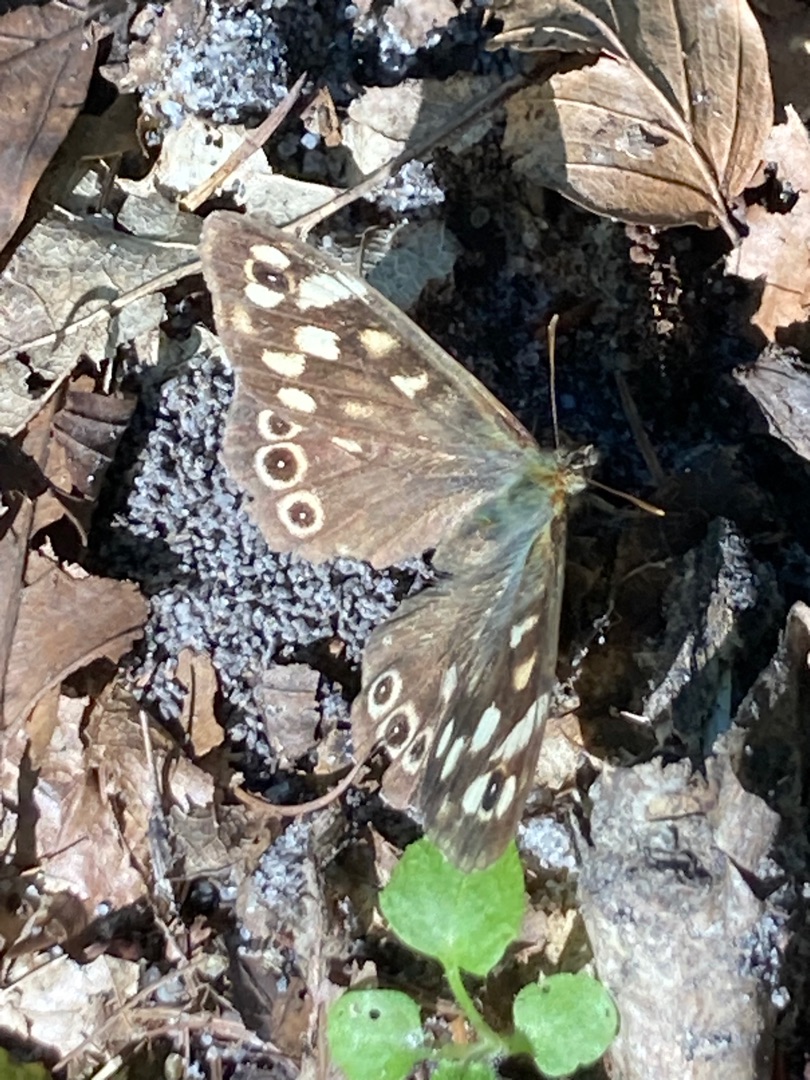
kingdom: Animalia
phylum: Arthropoda
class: Insecta
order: Lepidoptera
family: Nymphalidae
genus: Pararge
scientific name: Pararge aegeria
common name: Skovrandøje
